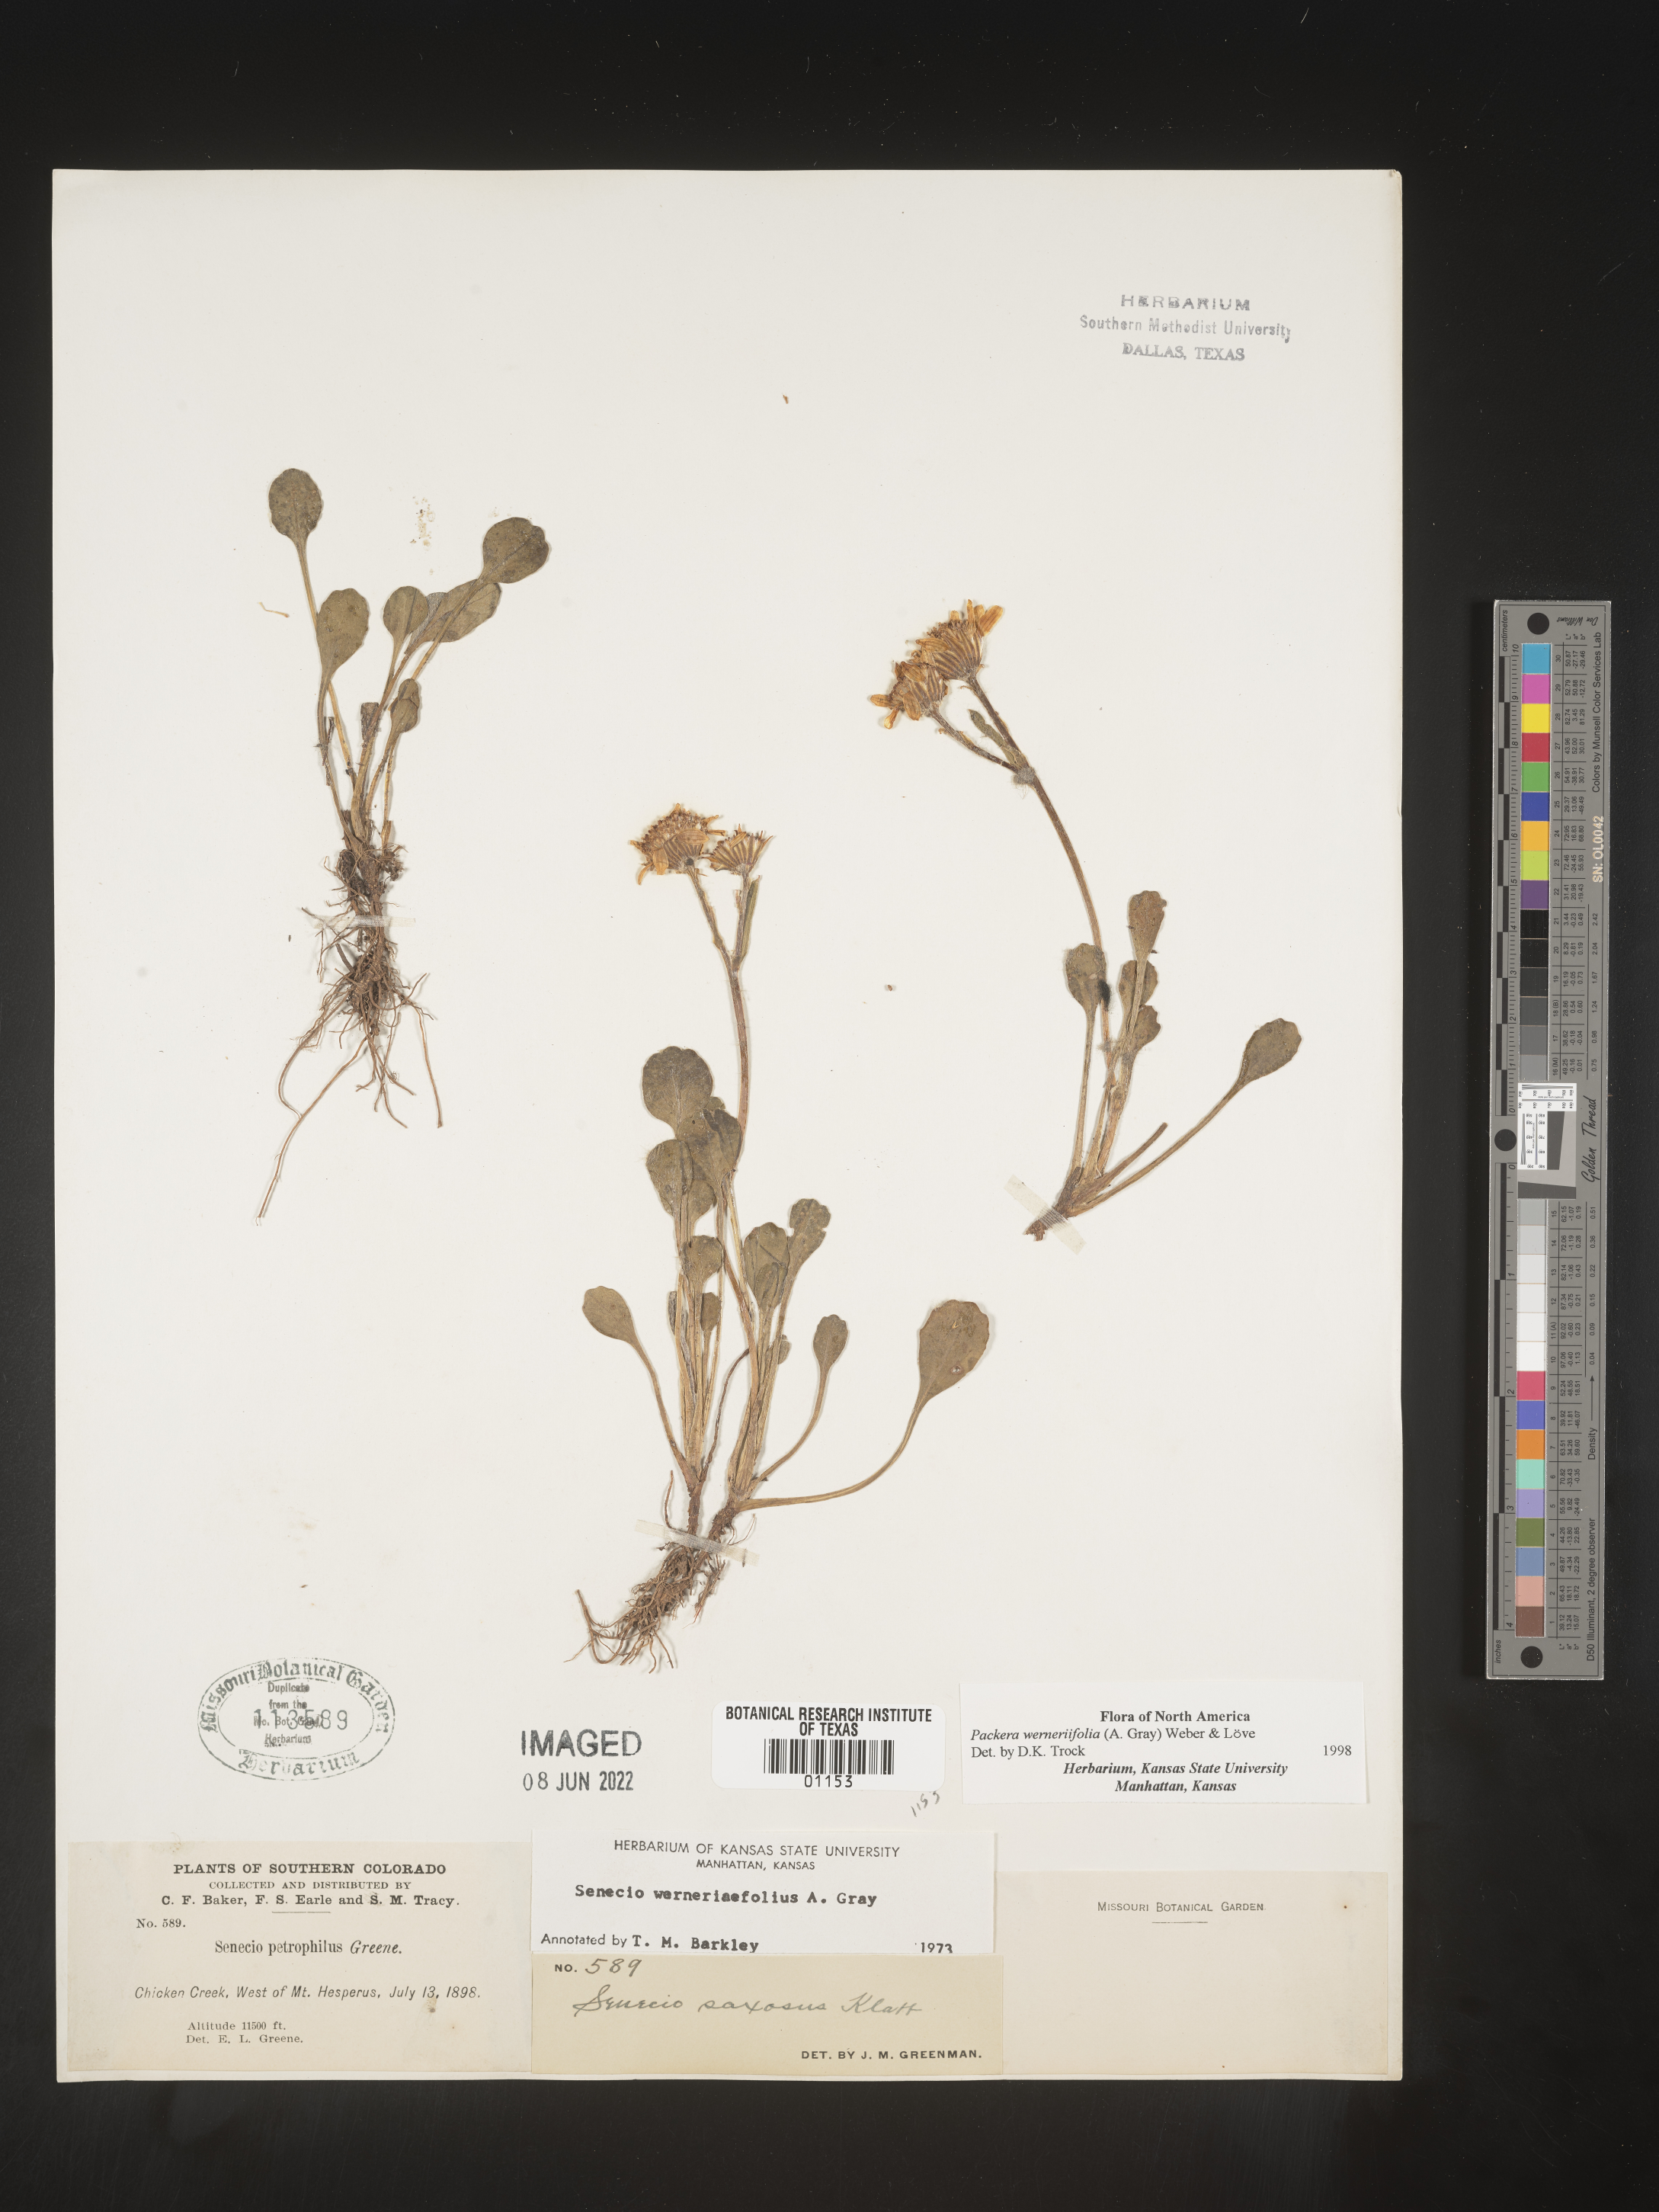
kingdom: Plantae
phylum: Tracheophyta
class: Magnoliopsida
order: Asterales
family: Asteraceae
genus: Packera
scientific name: Packera werneriifolia
